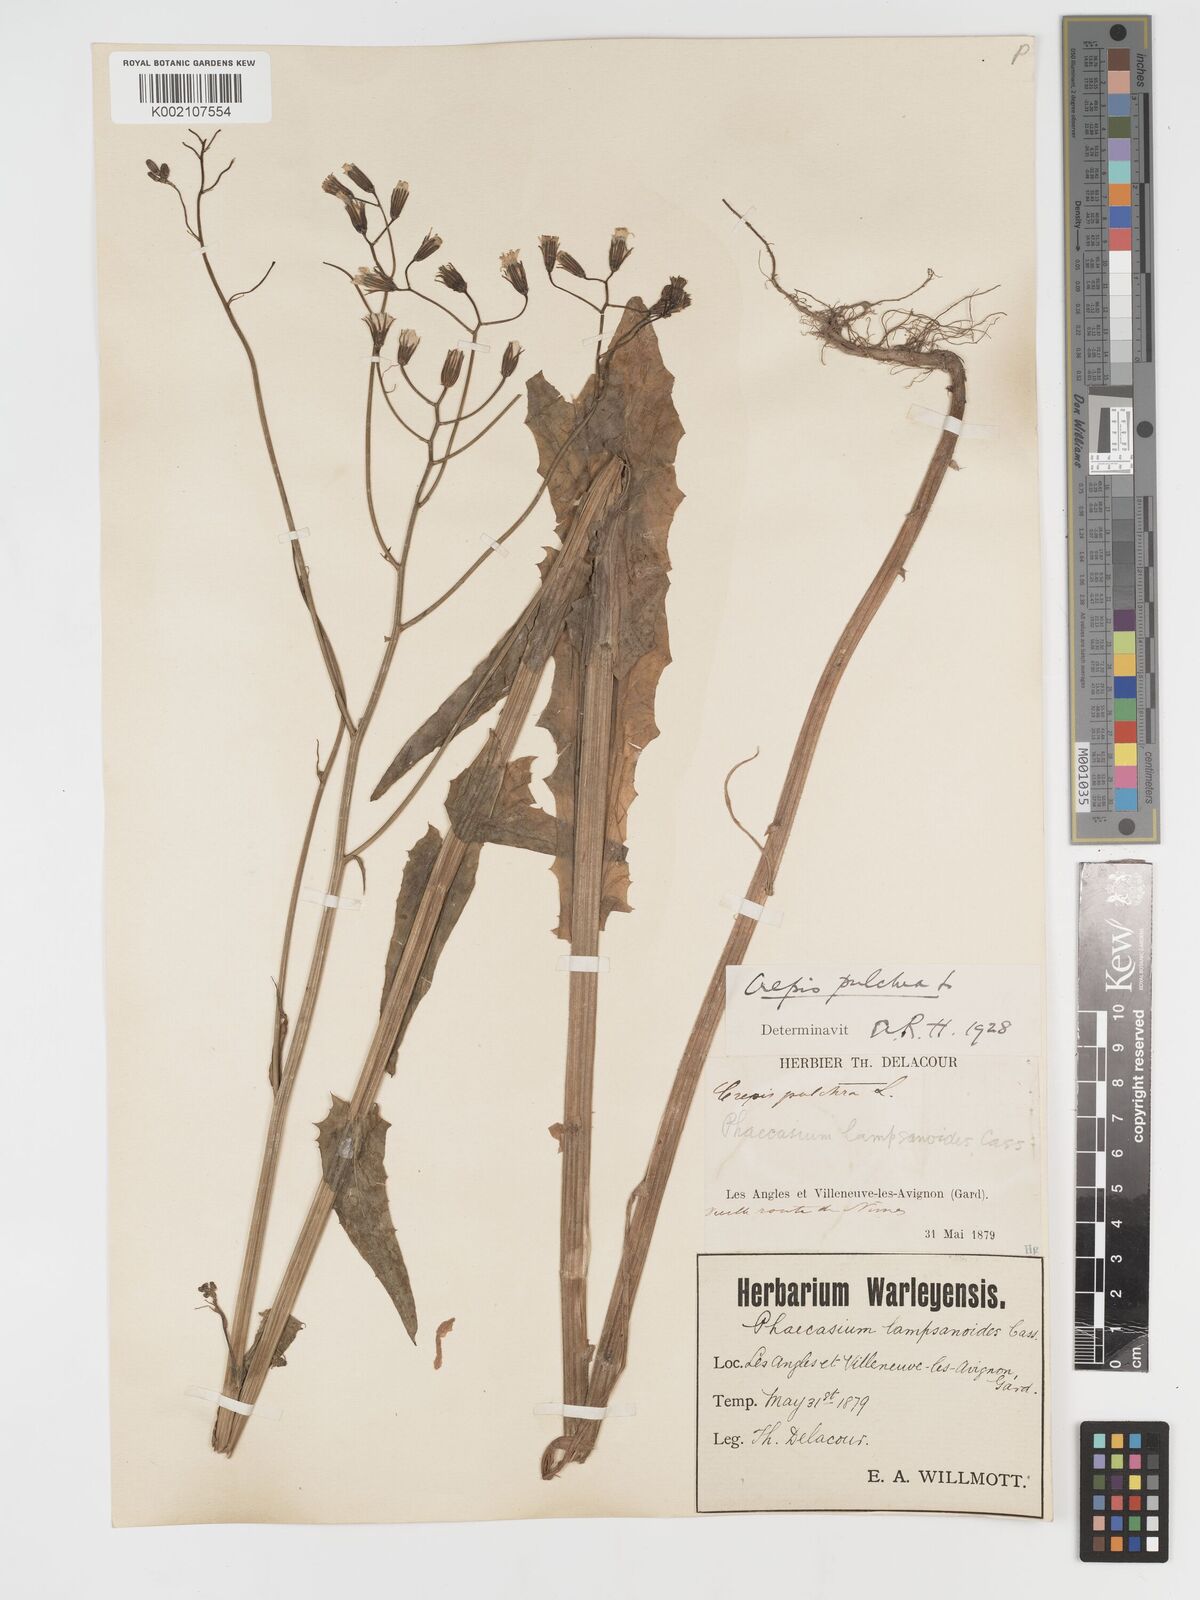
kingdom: Plantae
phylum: Tracheophyta
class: Magnoliopsida
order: Asterales
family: Asteraceae
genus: Crepis
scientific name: Crepis pulchra
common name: Hawk's-beard
